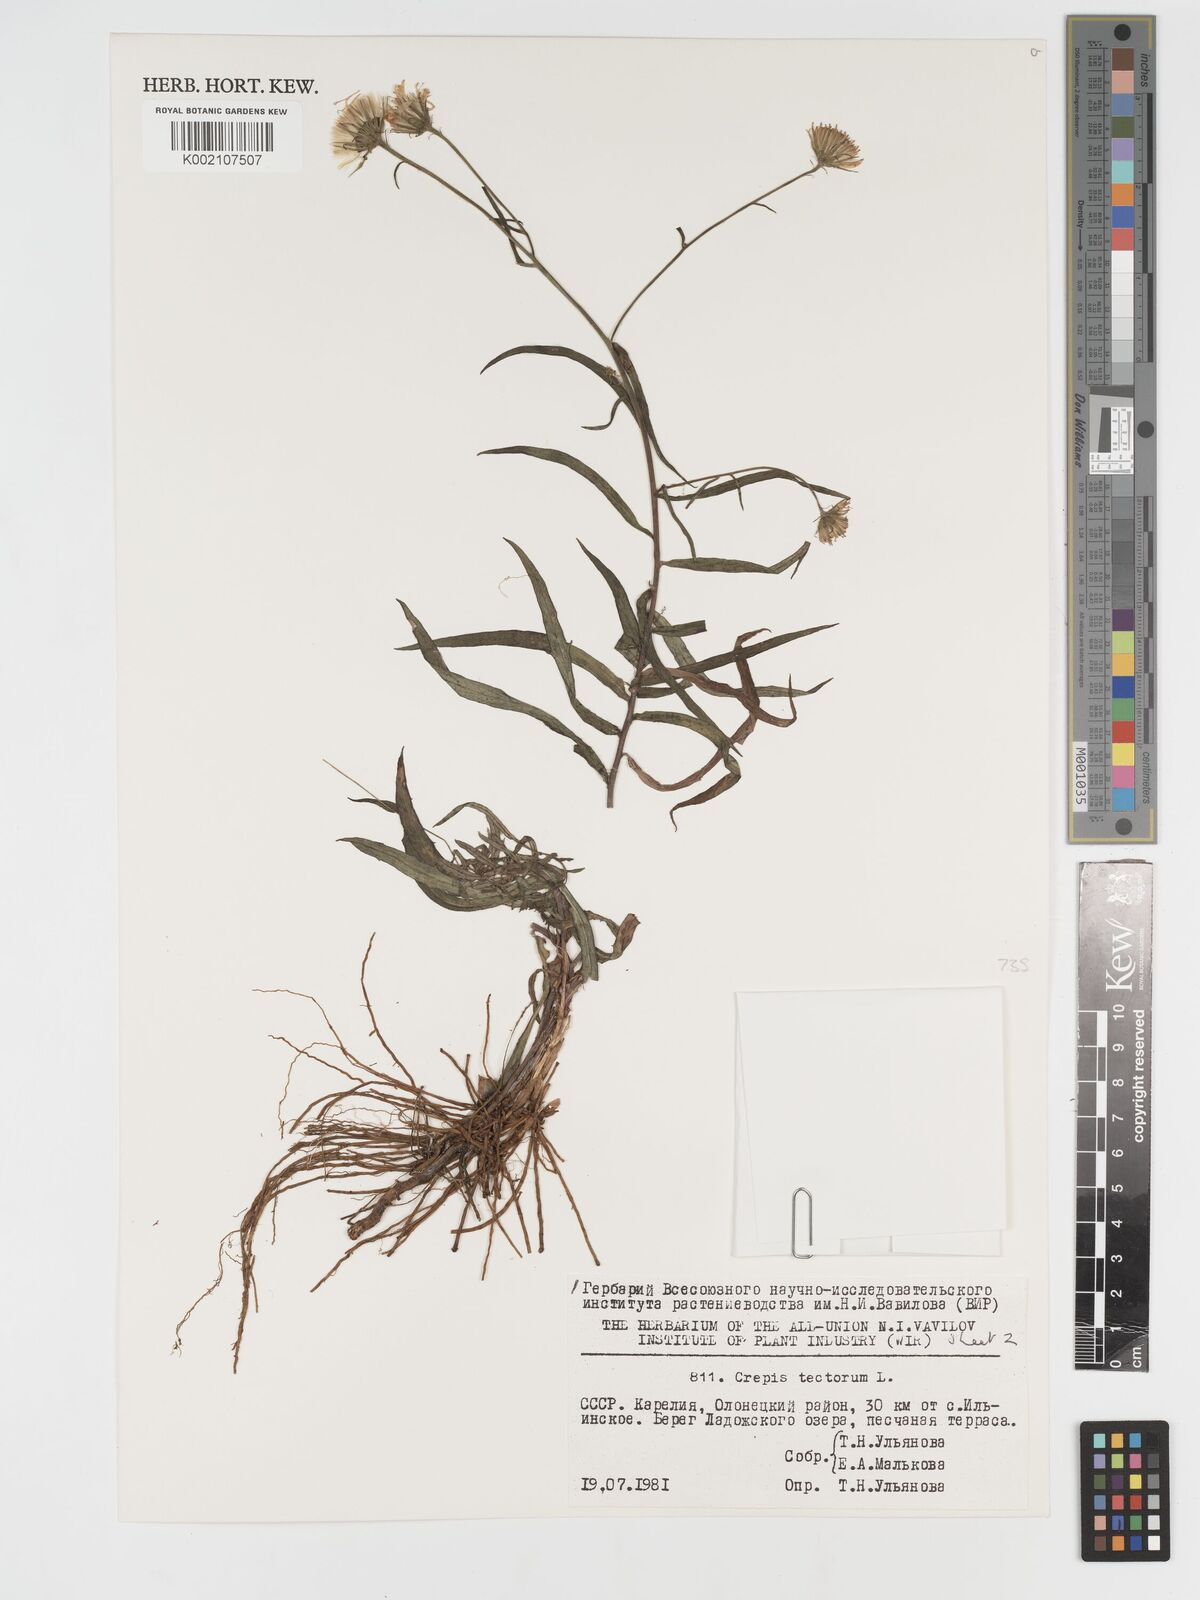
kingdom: Plantae
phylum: Tracheophyta
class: Magnoliopsida
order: Asterales
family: Asteraceae
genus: Crepis
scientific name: Crepis tectorum
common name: Narrow-leaved hawk's-beard
